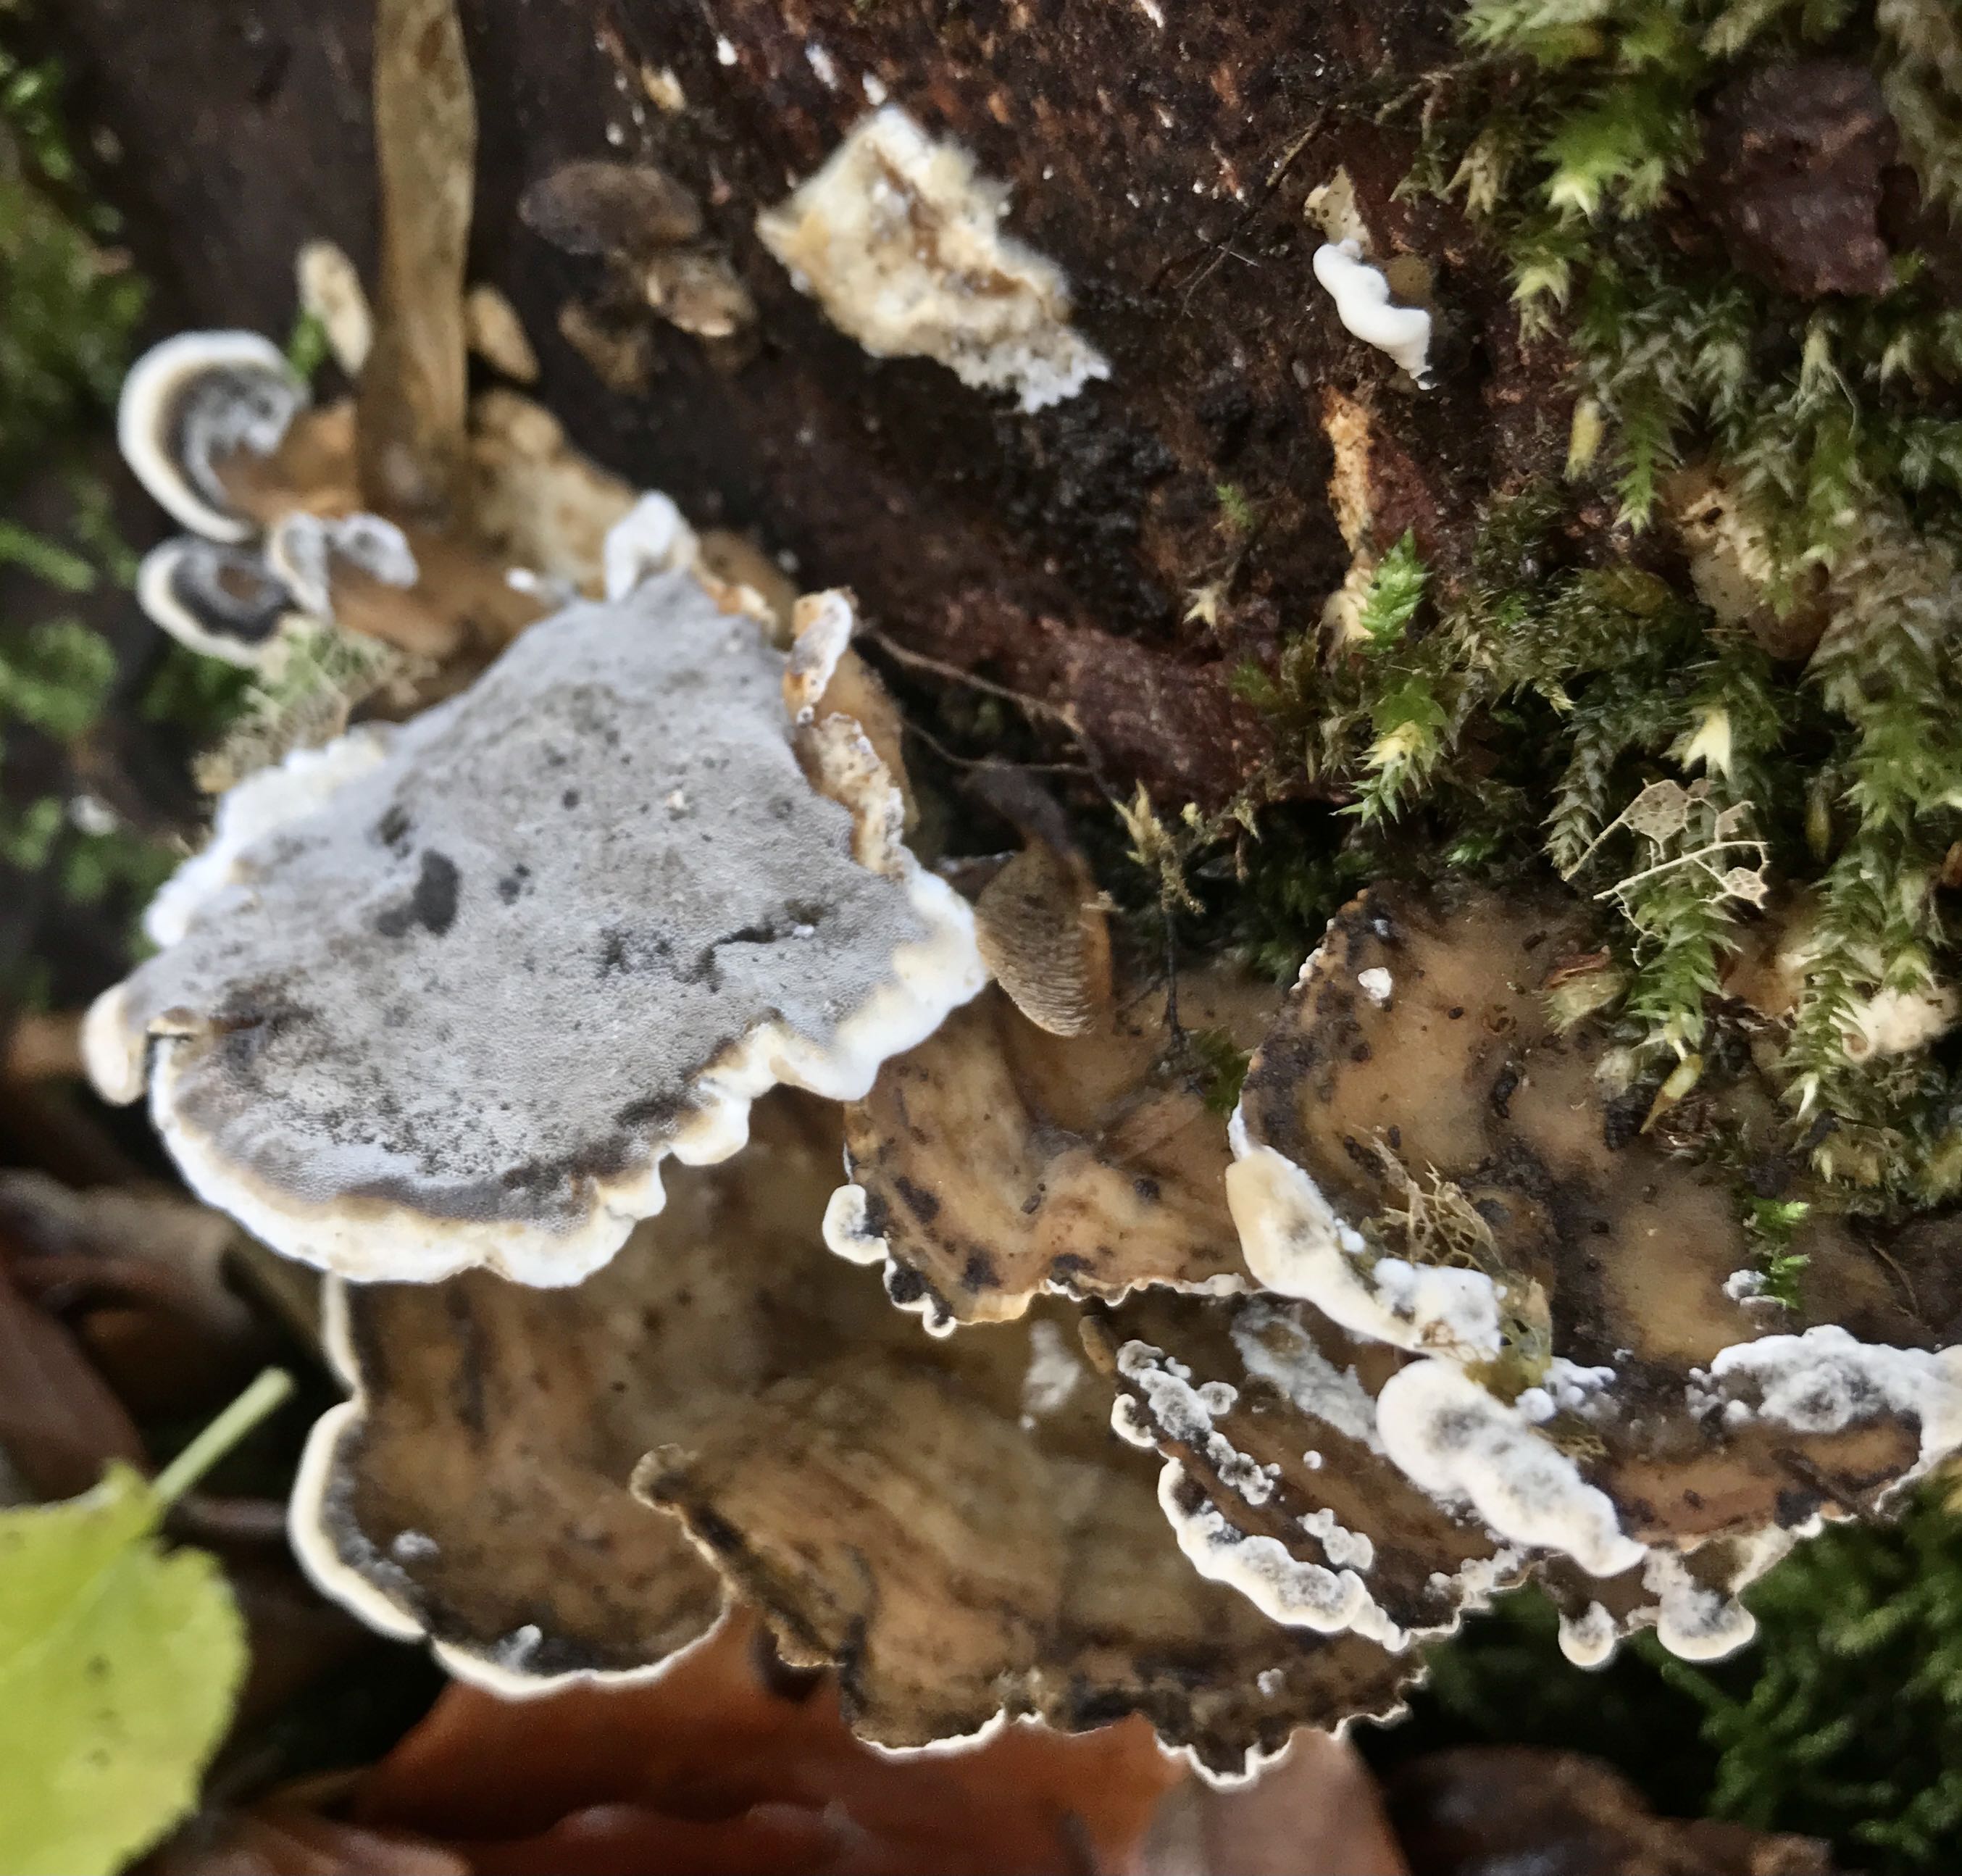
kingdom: Fungi
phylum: Basidiomycota
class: Agaricomycetes
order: Polyporales
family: Phanerochaetaceae
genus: Bjerkandera
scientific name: Bjerkandera adusta
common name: sveden sodporesvamp
